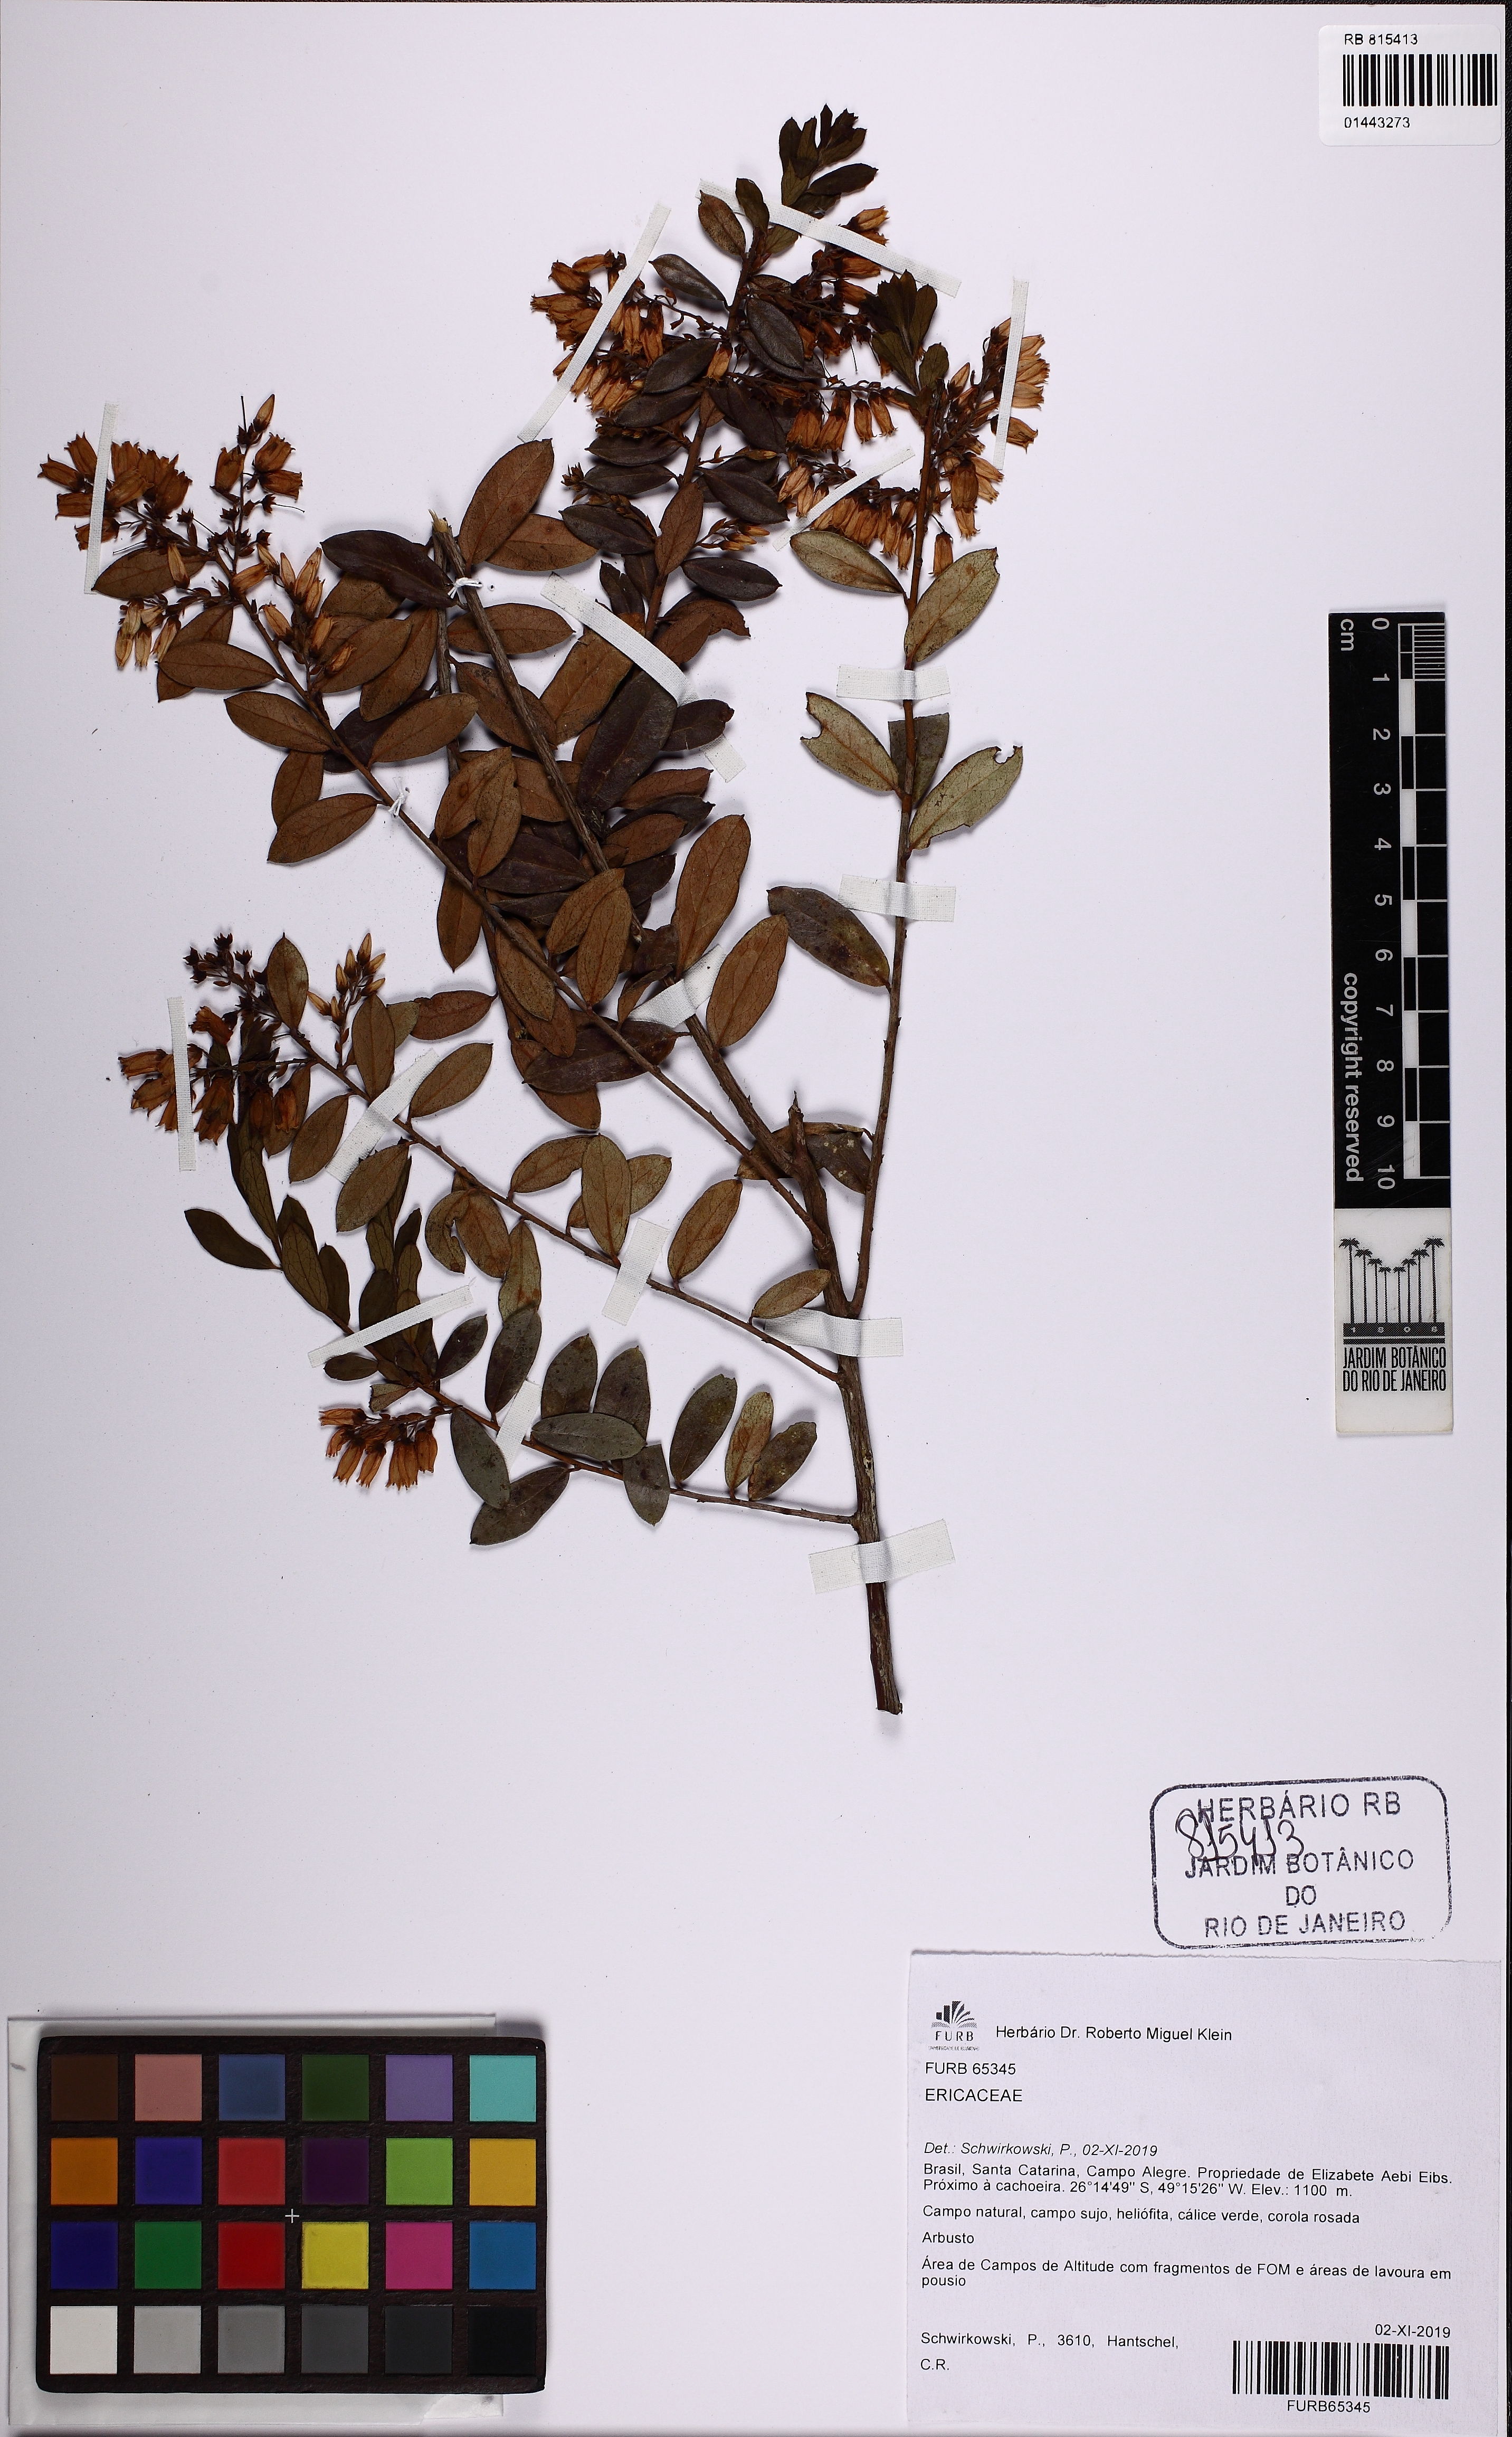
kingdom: Plantae
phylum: Tracheophyta
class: Magnoliopsida
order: Ericales
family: Ericaceae
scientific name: Ericaceae
